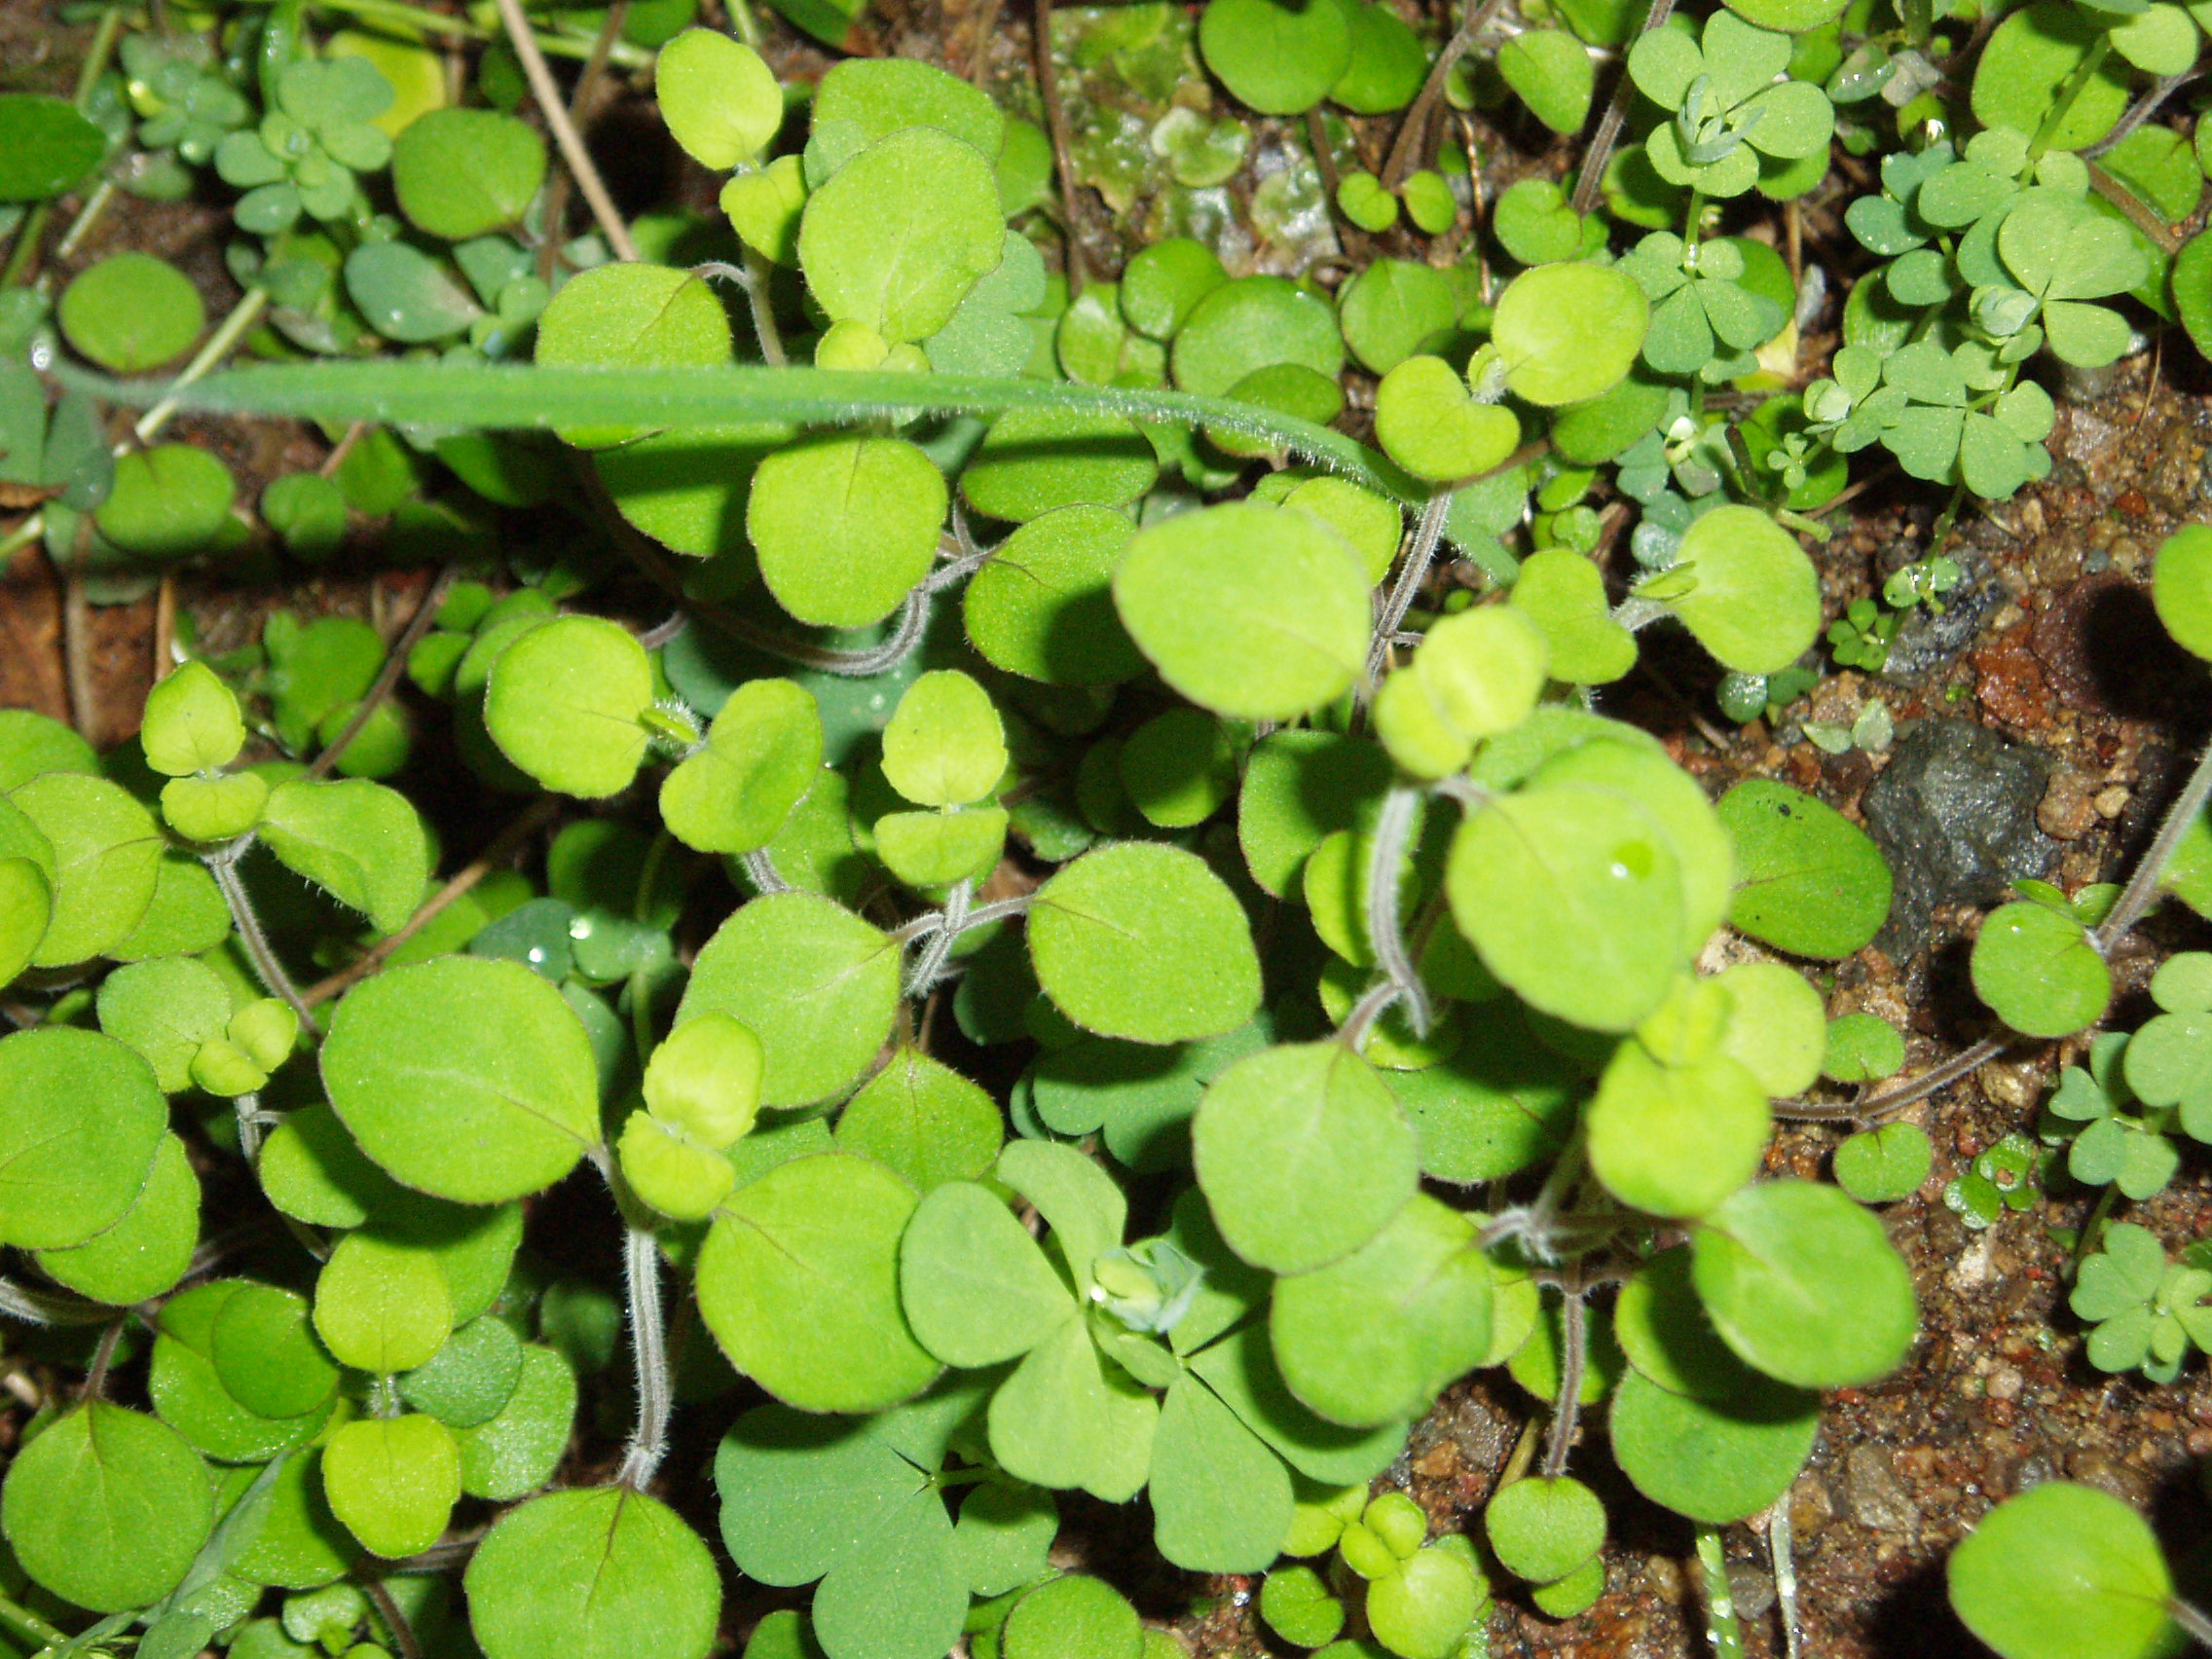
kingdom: Plantae
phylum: Tracheophyta
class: Magnoliopsida
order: Lamiales
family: Lamiaceae
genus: Mentha
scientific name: Mentha cunninghamii
